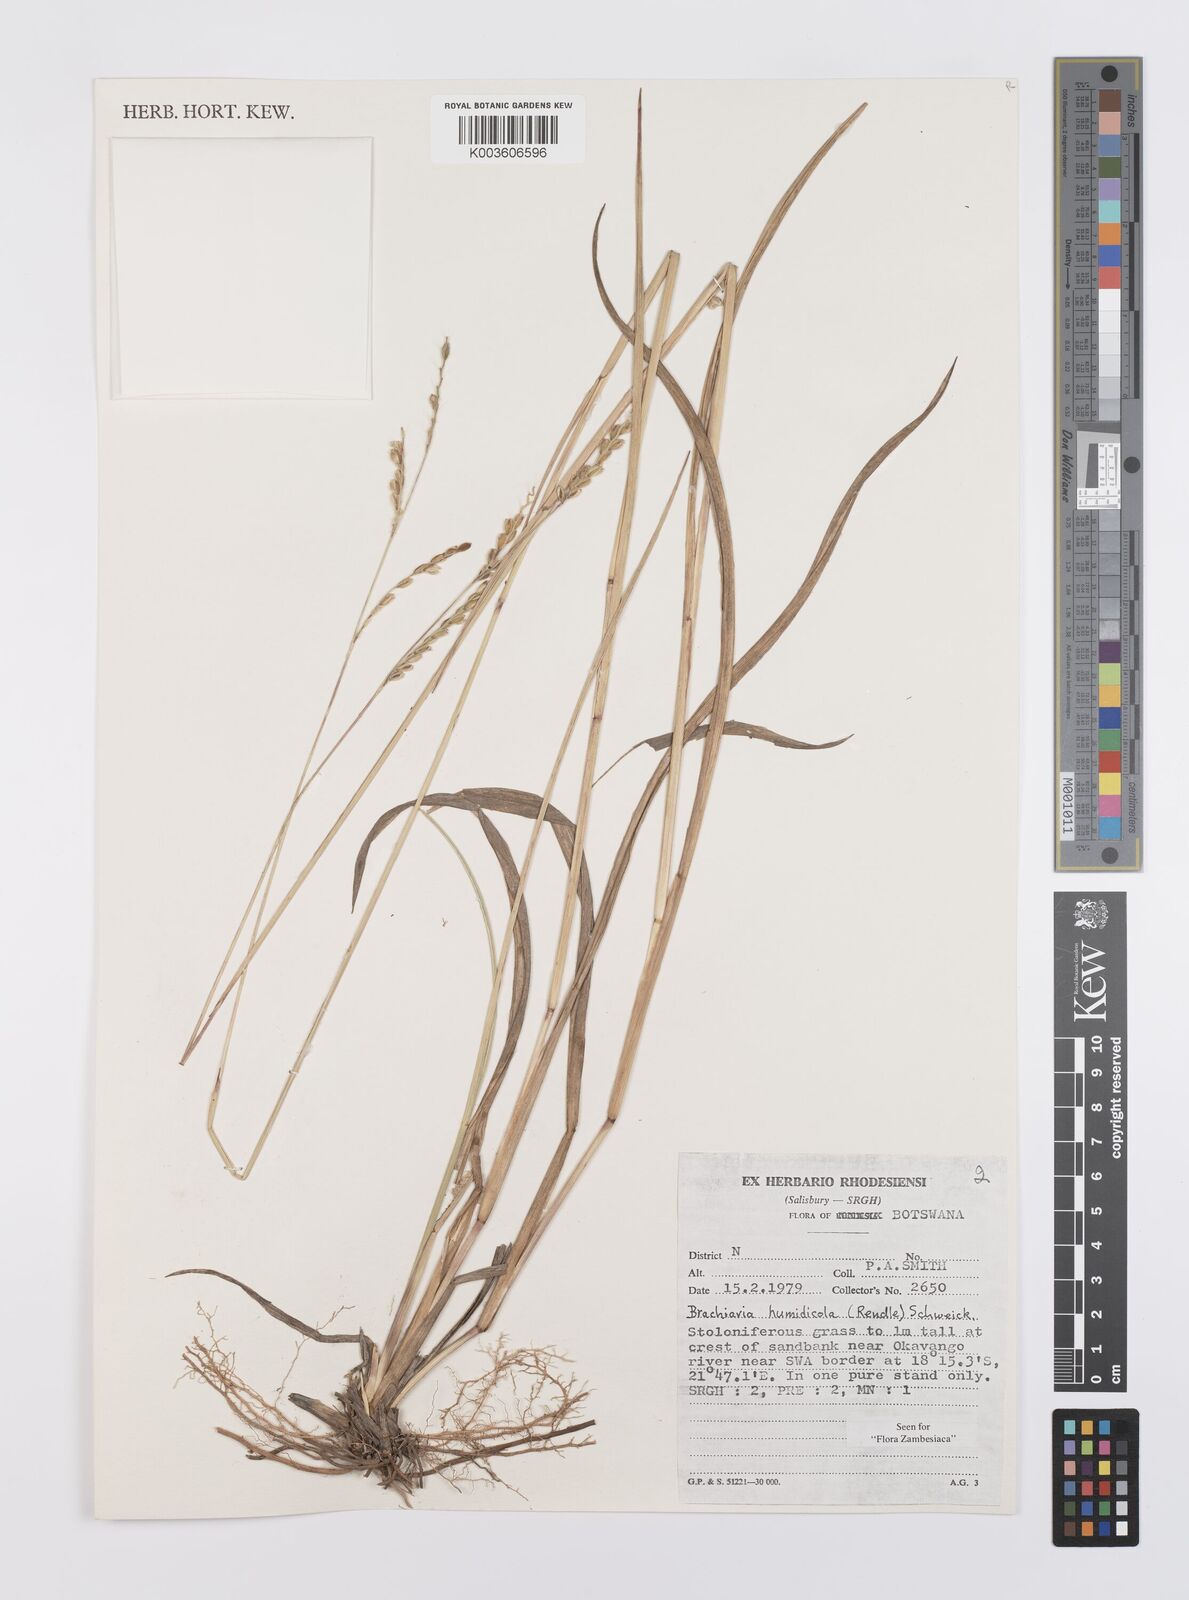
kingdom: Plantae
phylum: Tracheophyta
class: Liliopsida
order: Poales
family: Poaceae
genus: Urochloa
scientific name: Urochloa dictyoneura
